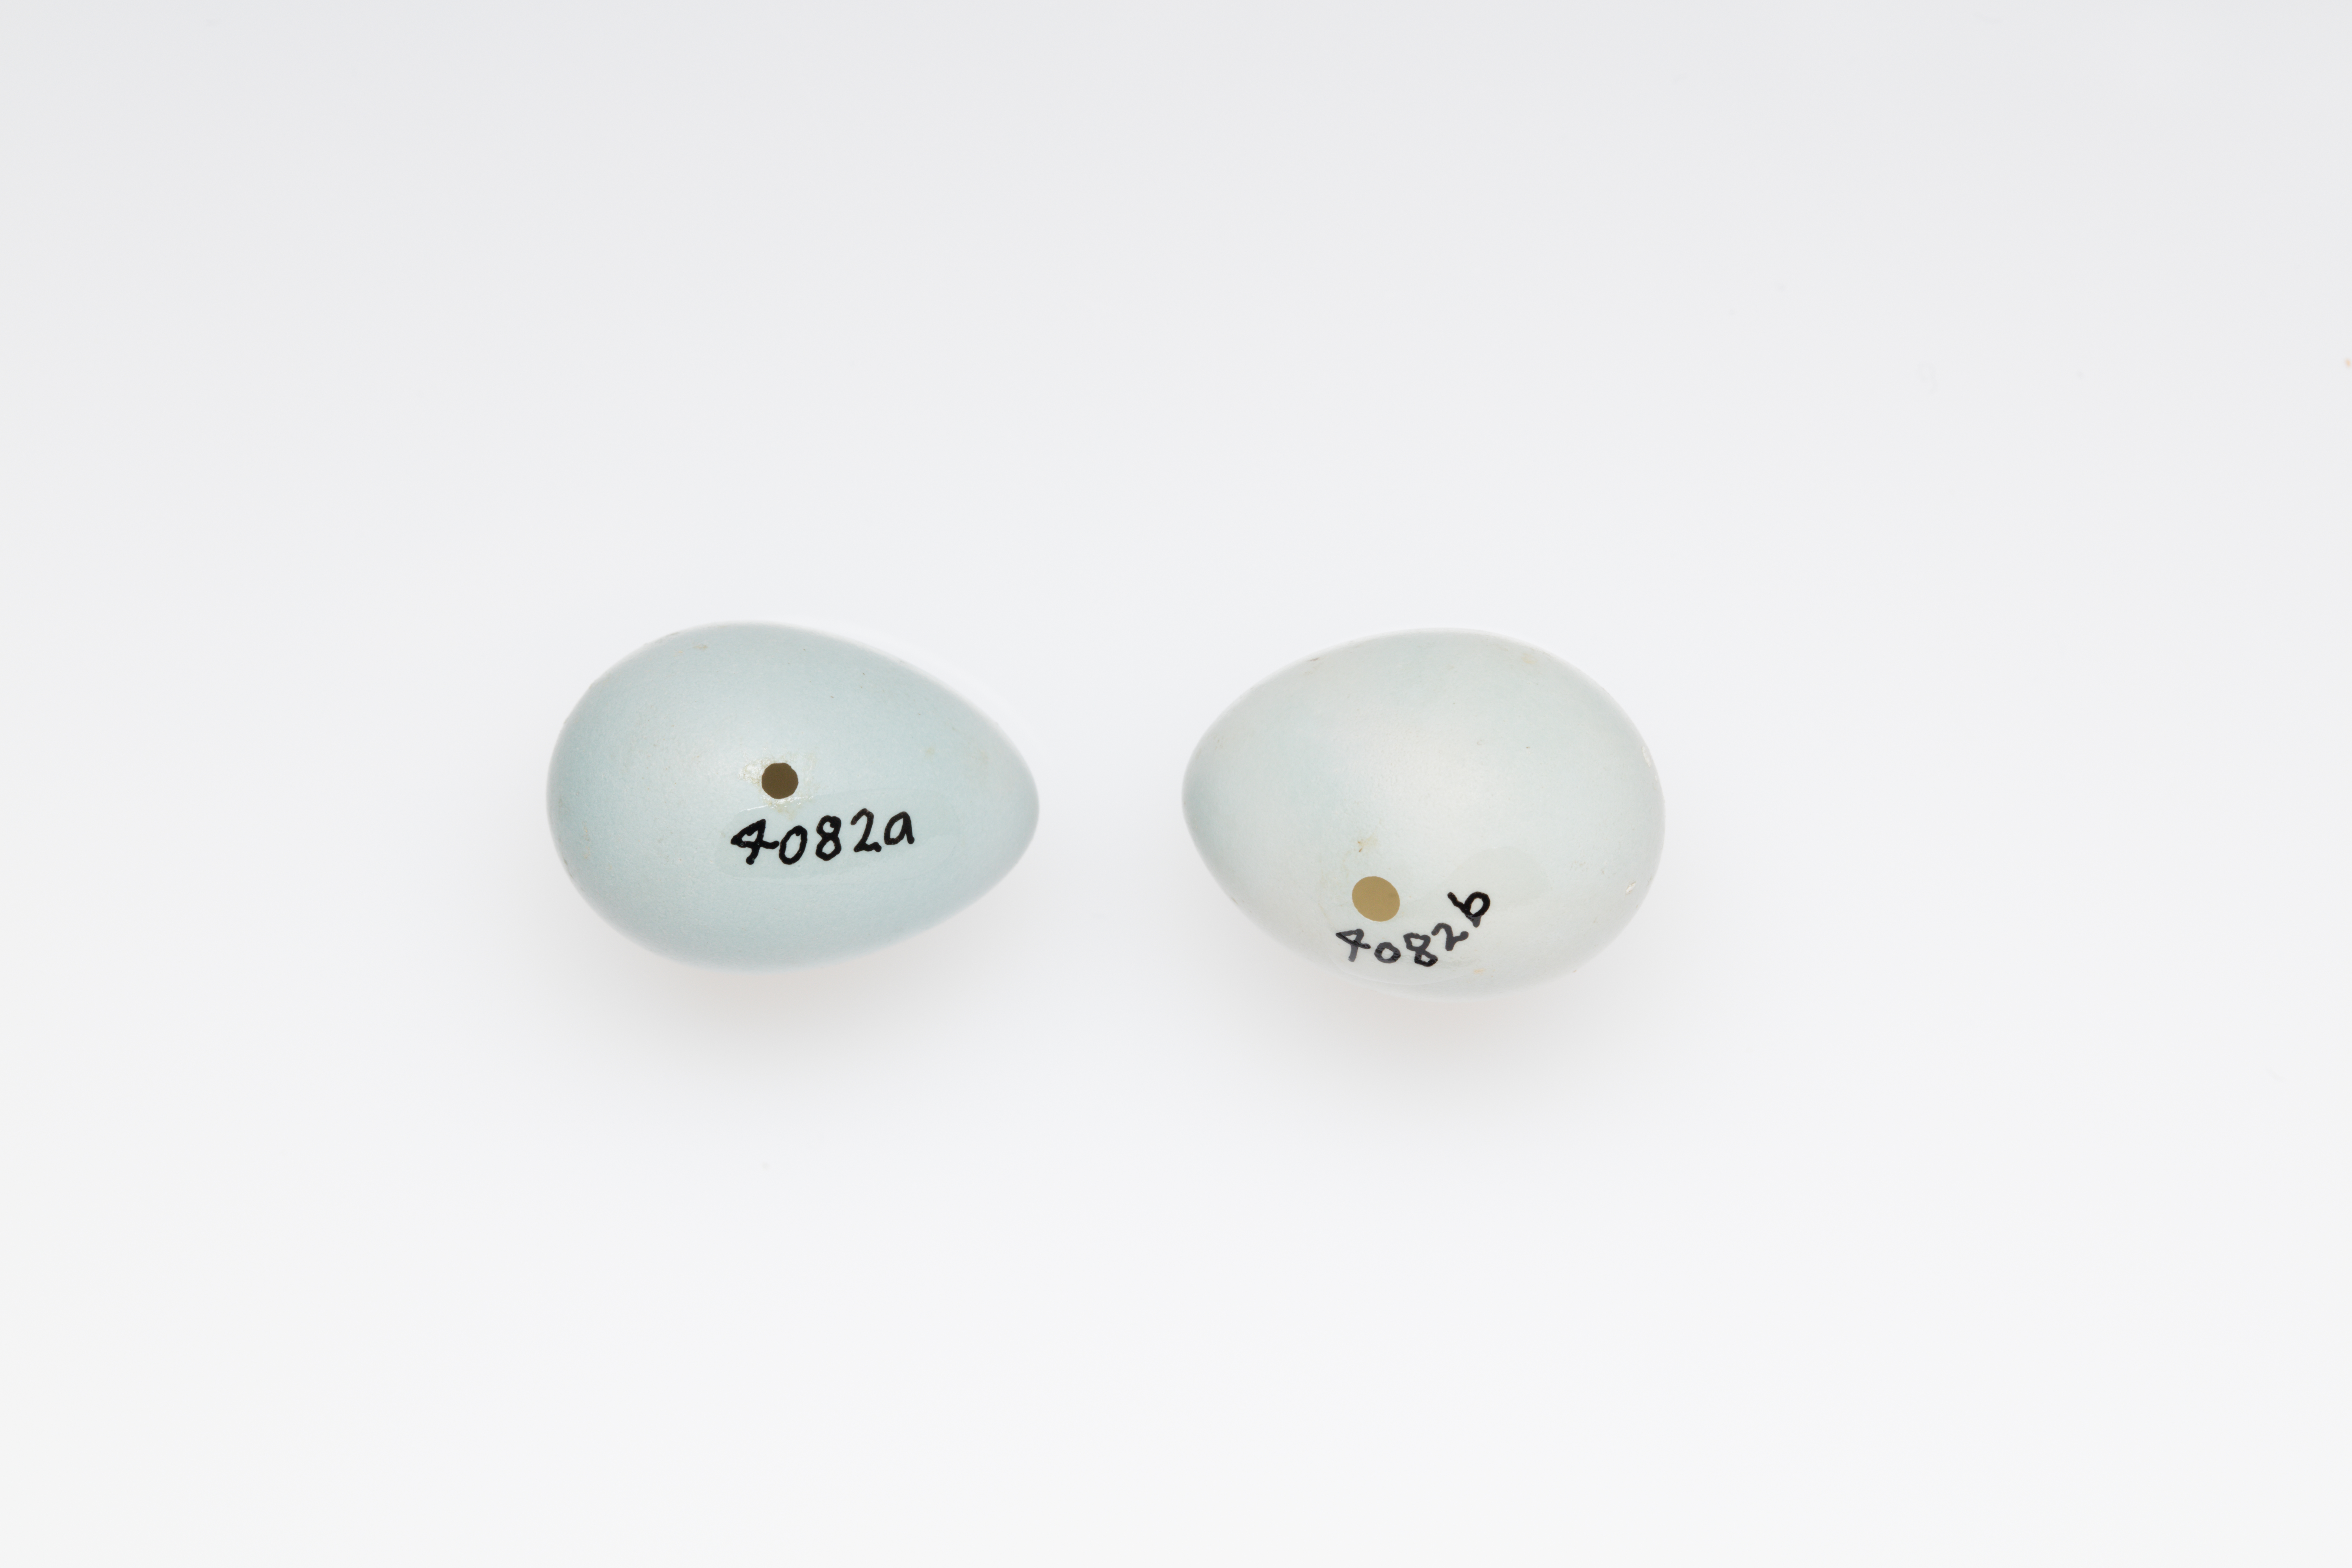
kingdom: Animalia
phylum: Chordata
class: Aves
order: Passeriformes
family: Prunellidae
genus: Prunella
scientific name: Prunella modularis
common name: Dunnock
